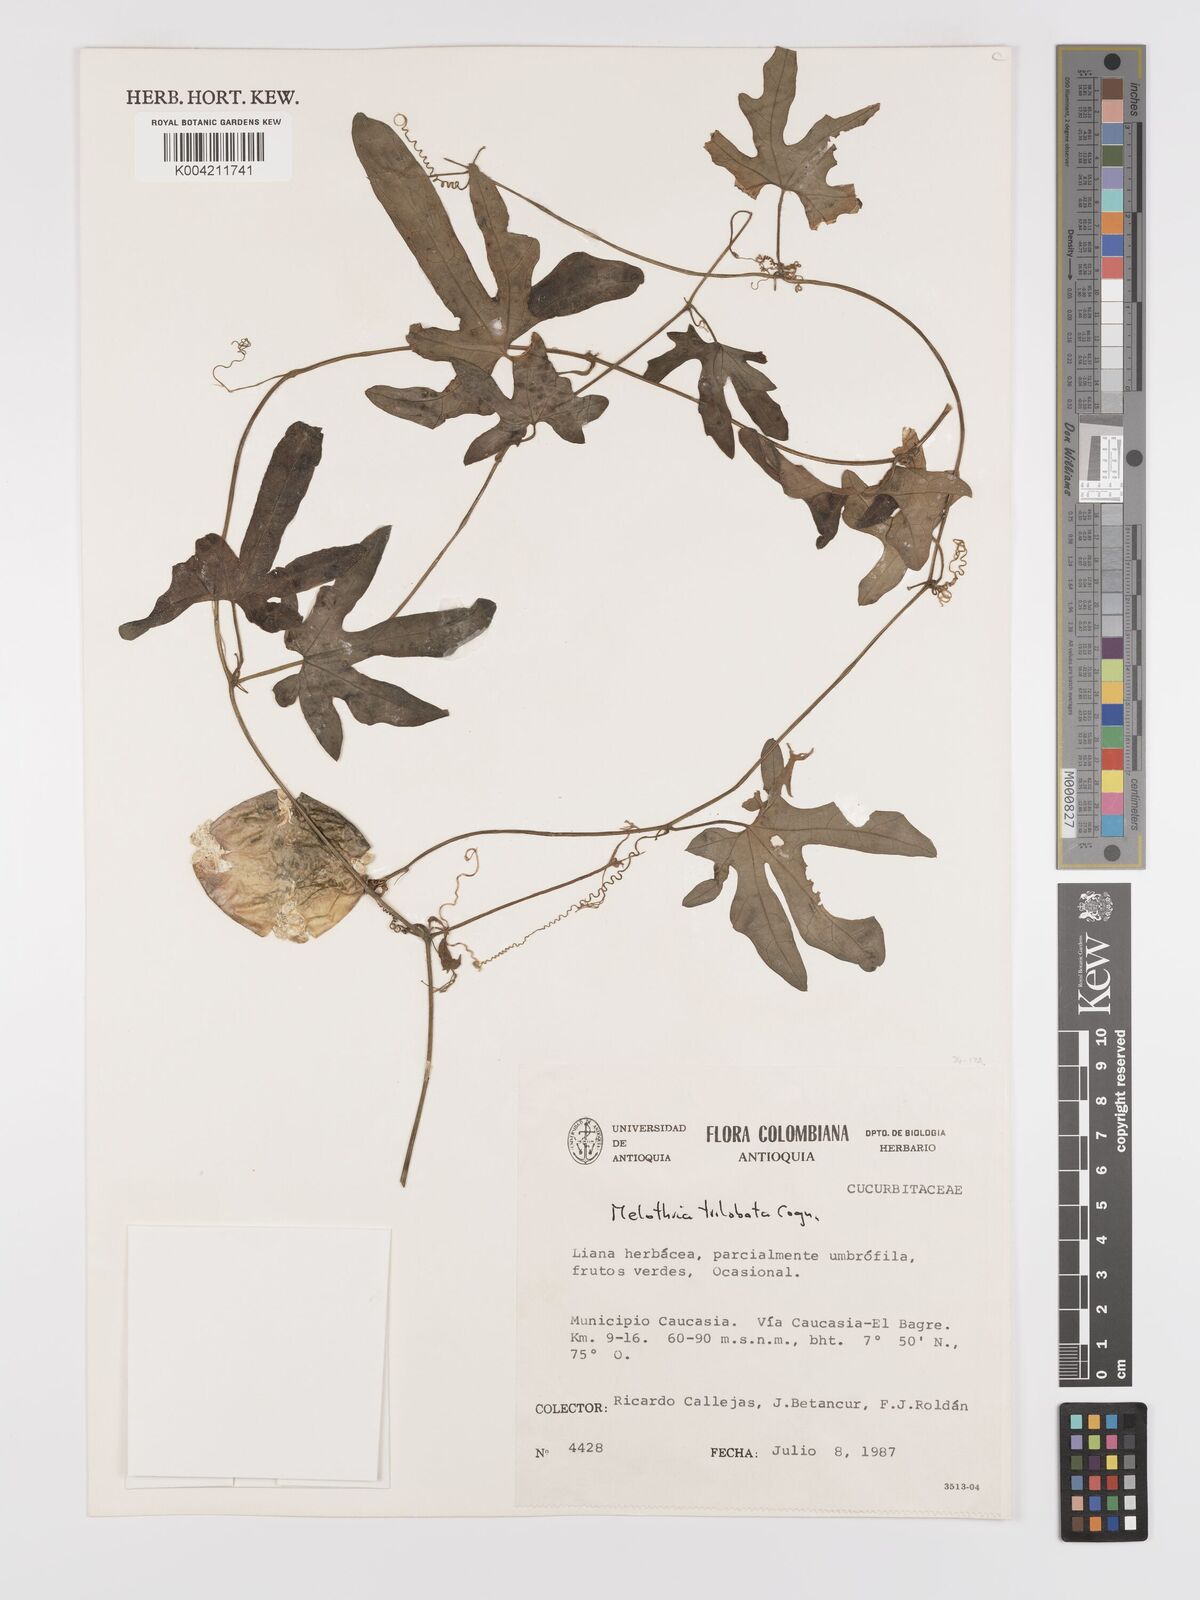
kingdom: Plantae
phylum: Tracheophyta
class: Magnoliopsida
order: Cucurbitales
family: Cucurbitaceae
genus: Melothria
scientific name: Melothria trilobata
